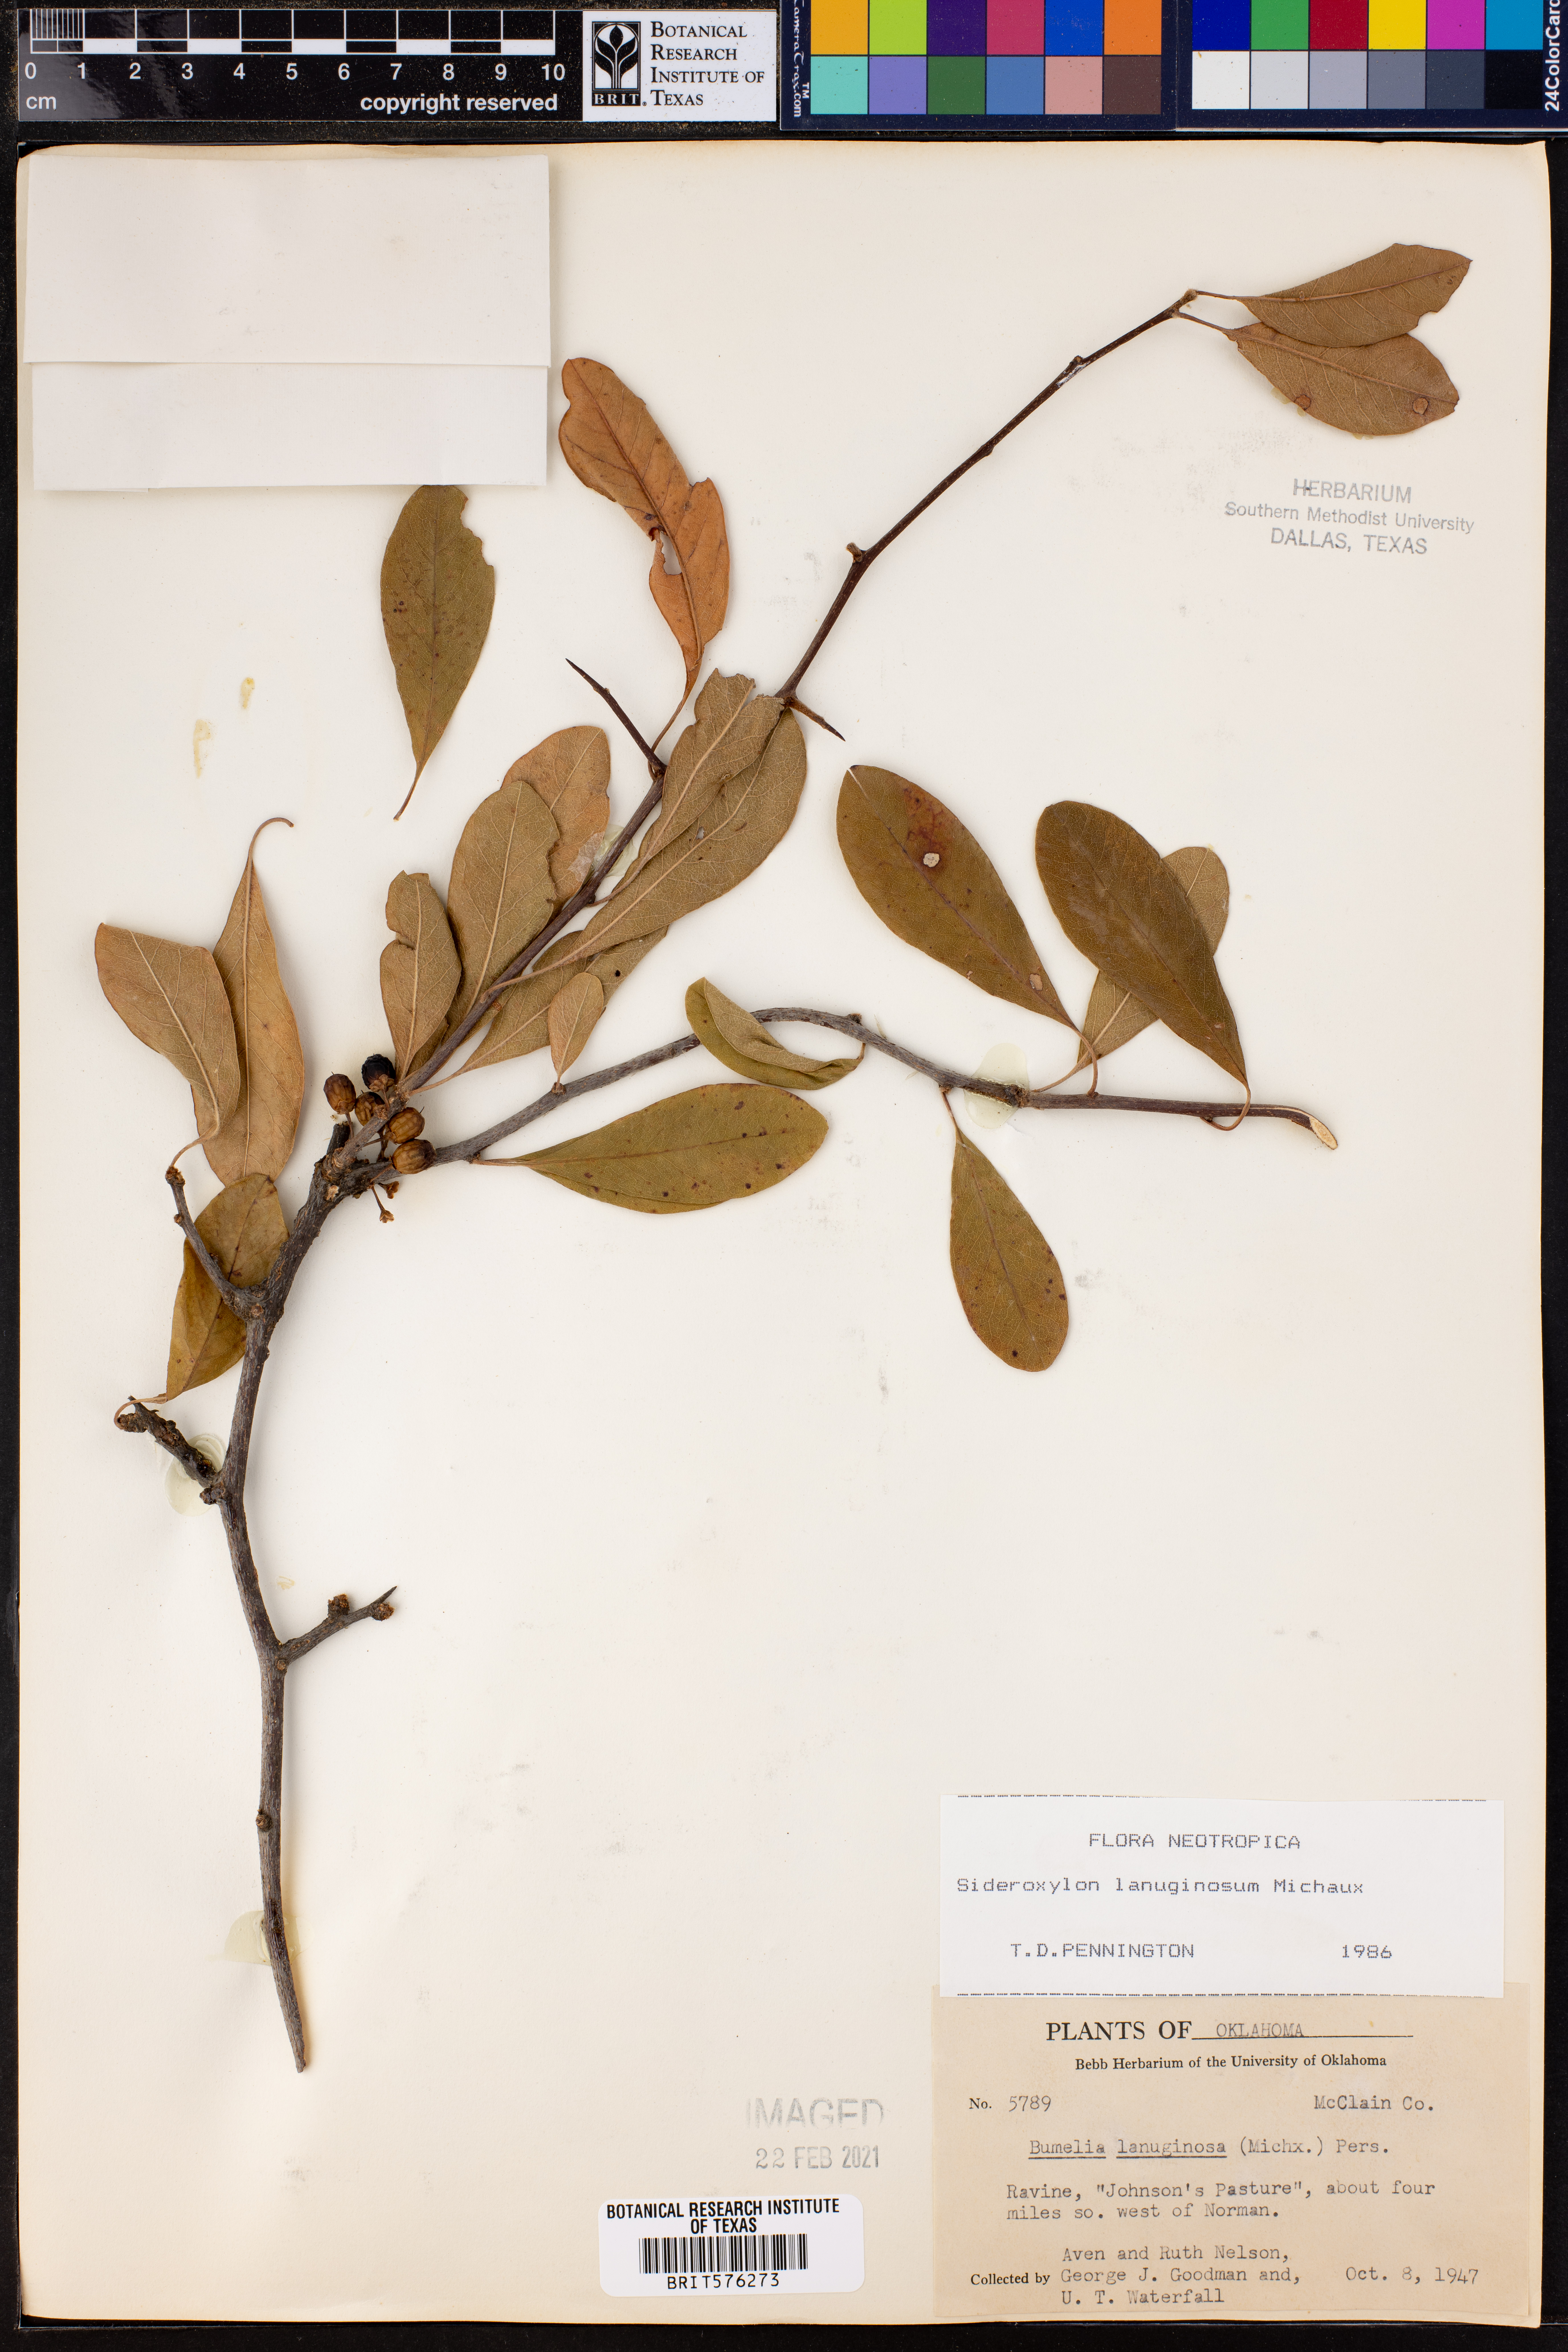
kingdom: Plantae
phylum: Tracheophyta
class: Magnoliopsida
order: Ericales
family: Sapotaceae
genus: Sideroxylon
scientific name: Sideroxylon lanuginosum
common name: Chittamwood
